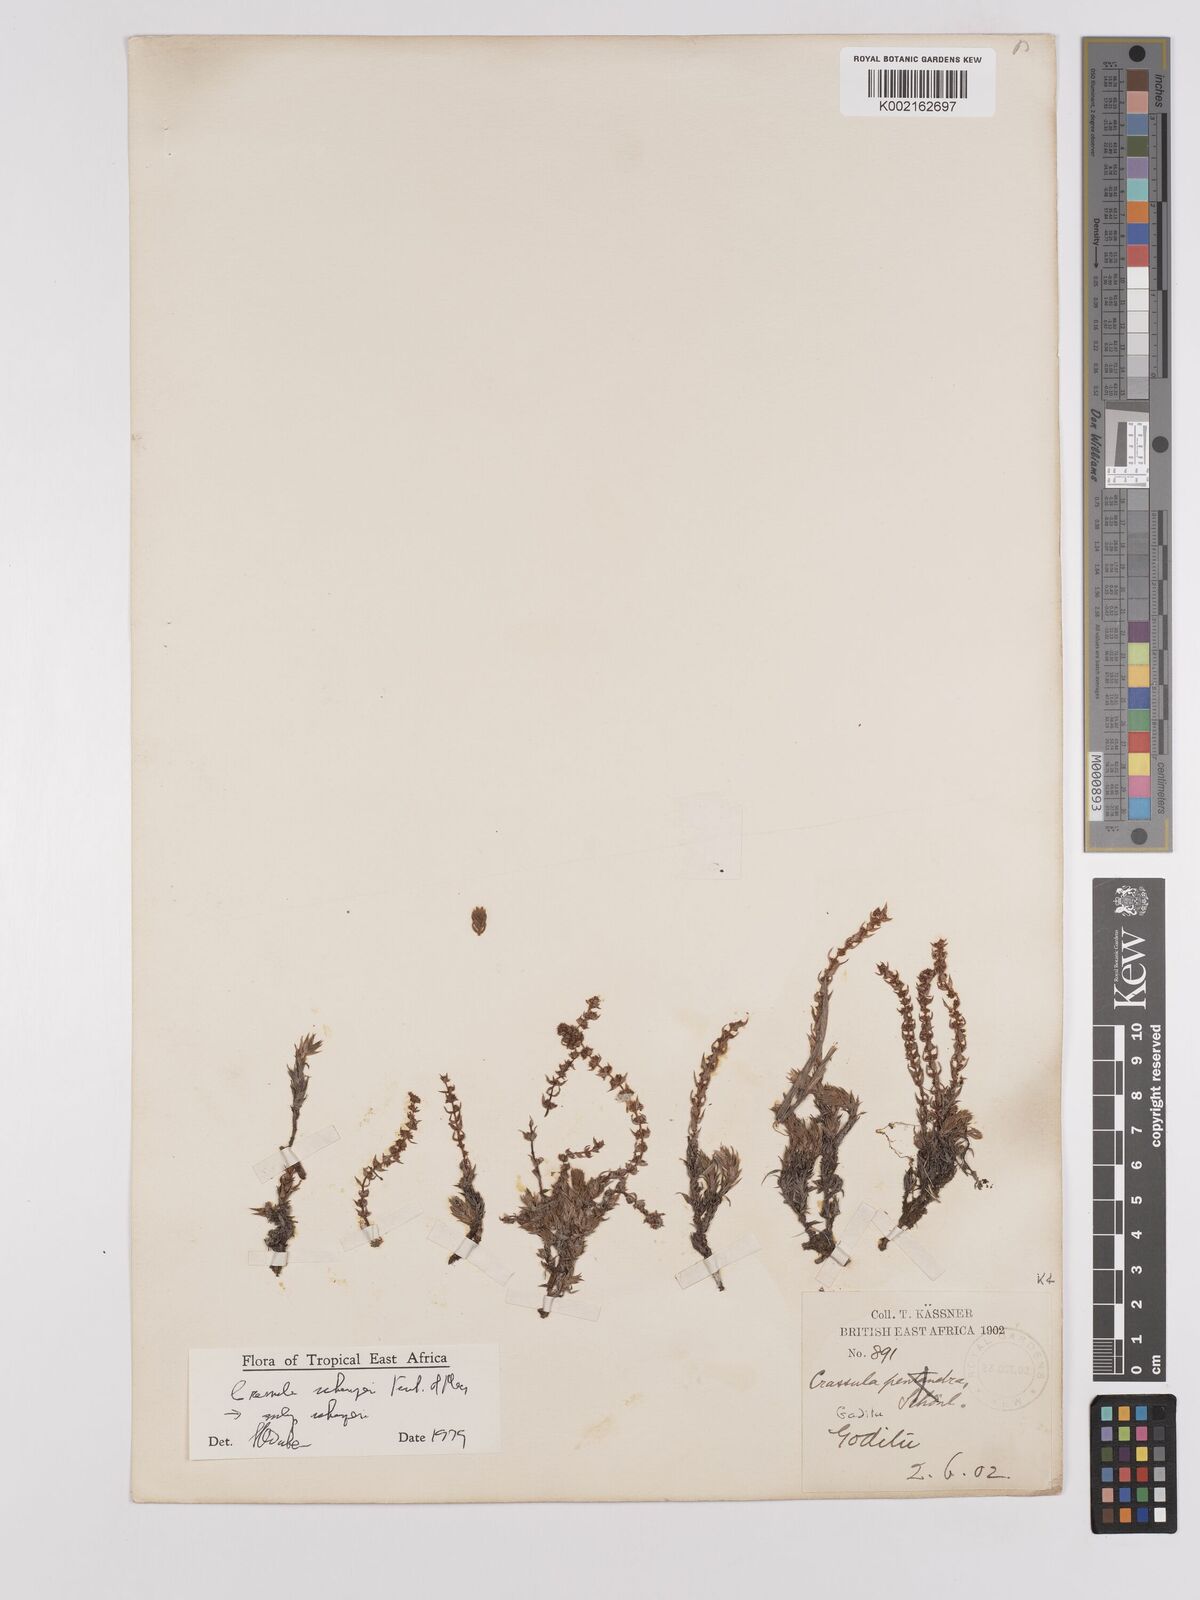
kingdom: Plantae
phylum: Tracheophyta
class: Magnoliopsida
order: Saxifragales
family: Crassulaceae
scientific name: Crassulaceae
